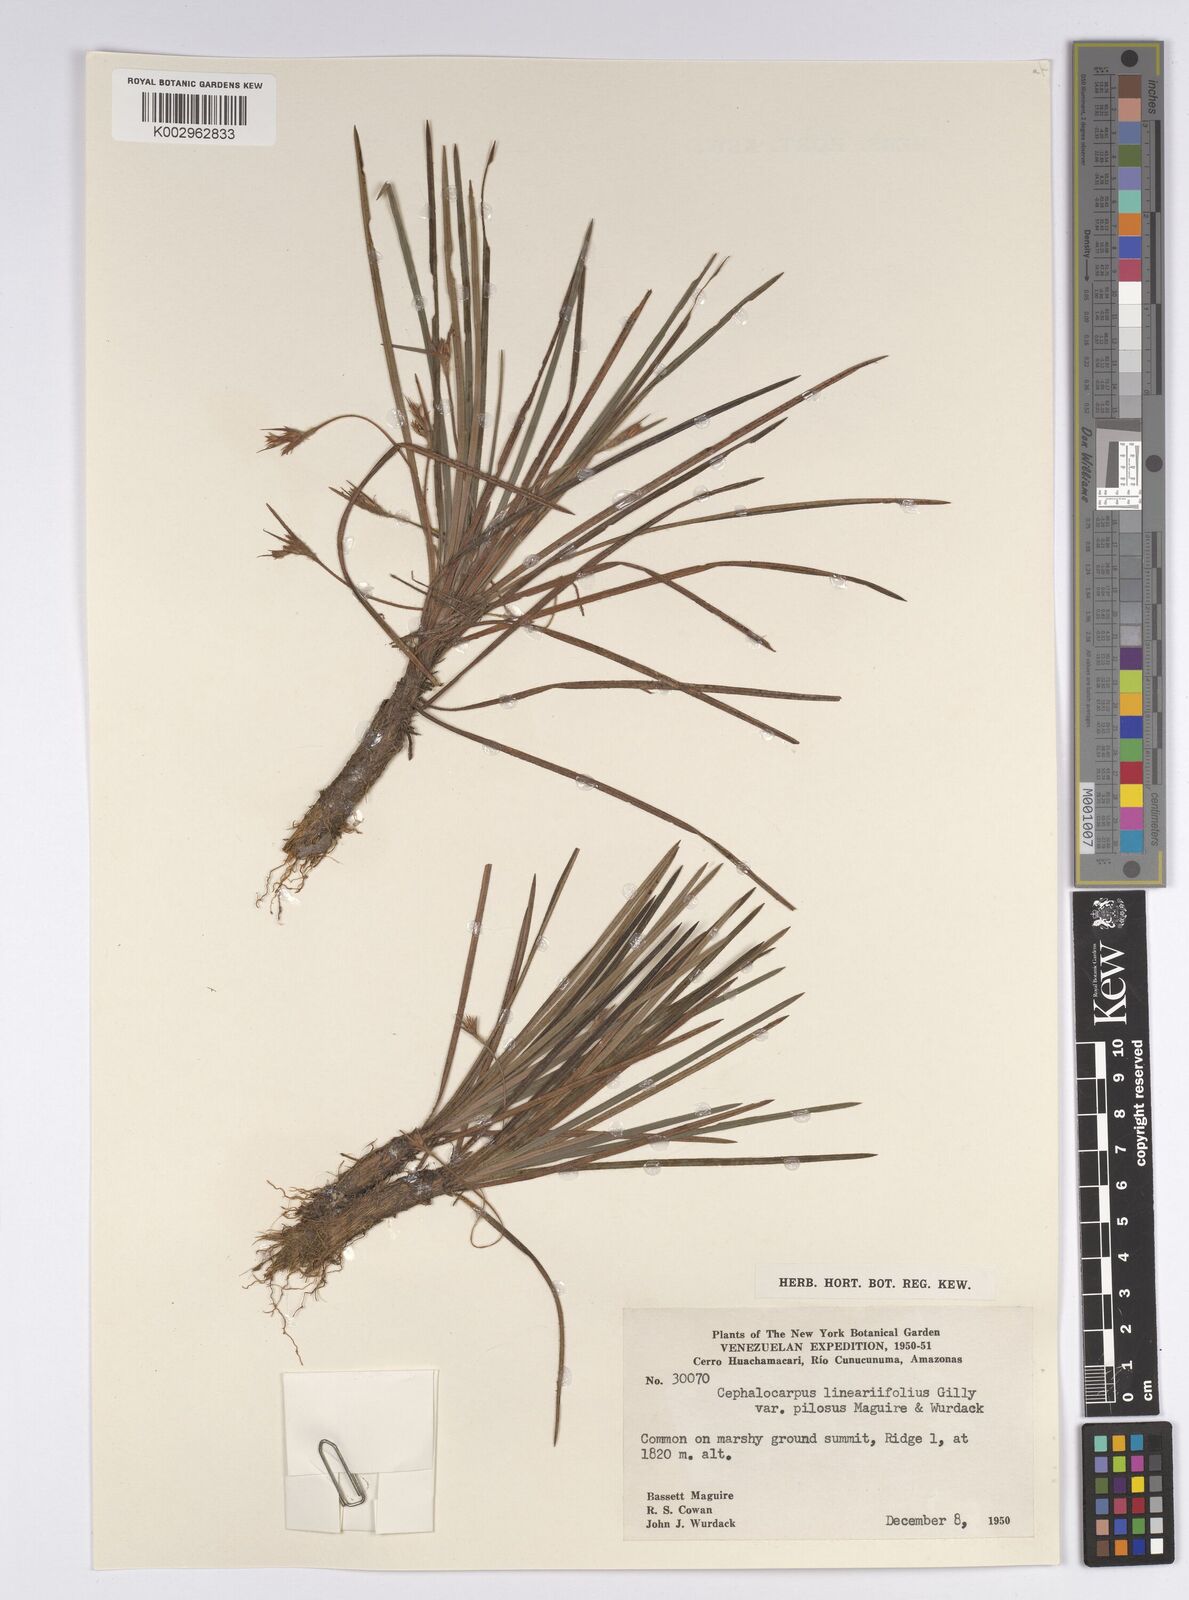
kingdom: Plantae
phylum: Tracheophyta
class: Liliopsida
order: Poales
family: Cyperaceae
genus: Cephalocarpus
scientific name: Cephalocarpus rigidus
